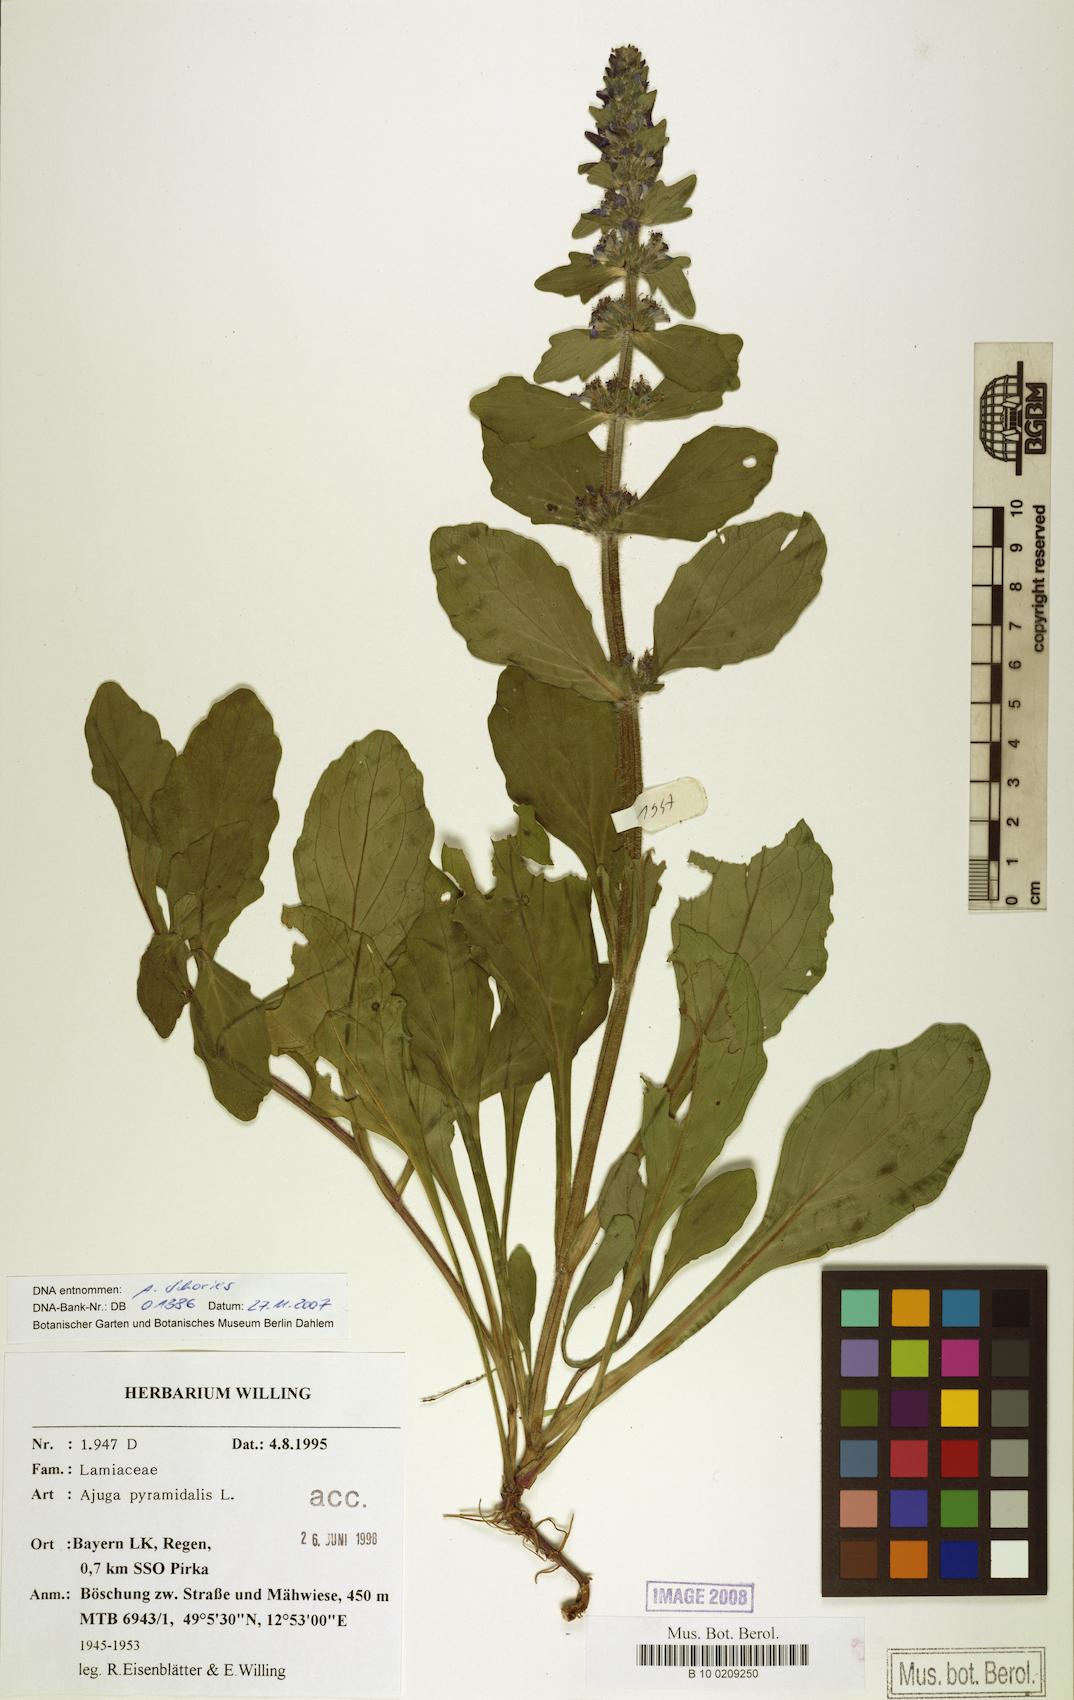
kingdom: Plantae
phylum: Tracheophyta
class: Magnoliopsida
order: Lamiales
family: Lamiaceae
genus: Ajuga
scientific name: Ajuga pyramidalis
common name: Pyramid bugle
